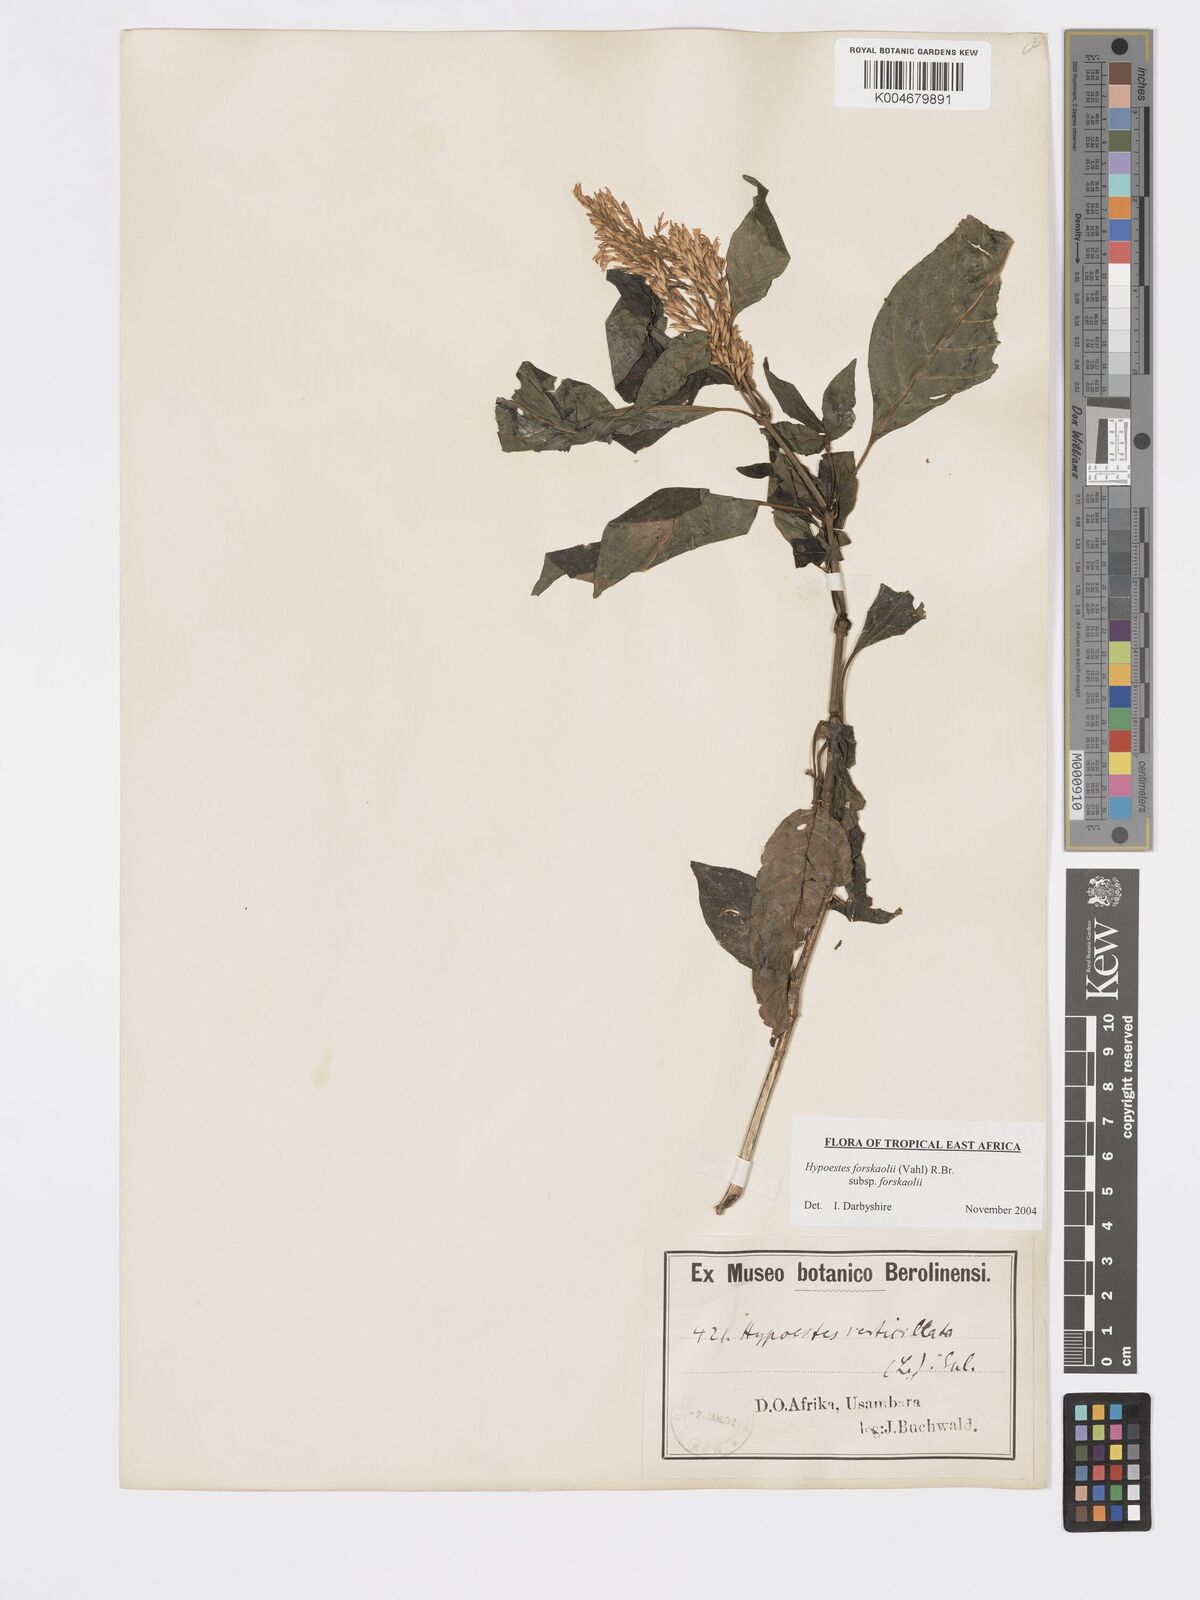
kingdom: Plantae
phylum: Tracheophyta
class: Magnoliopsida
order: Lamiales
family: Acanthaceae
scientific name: Acanthaceae
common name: Acanthaceae
